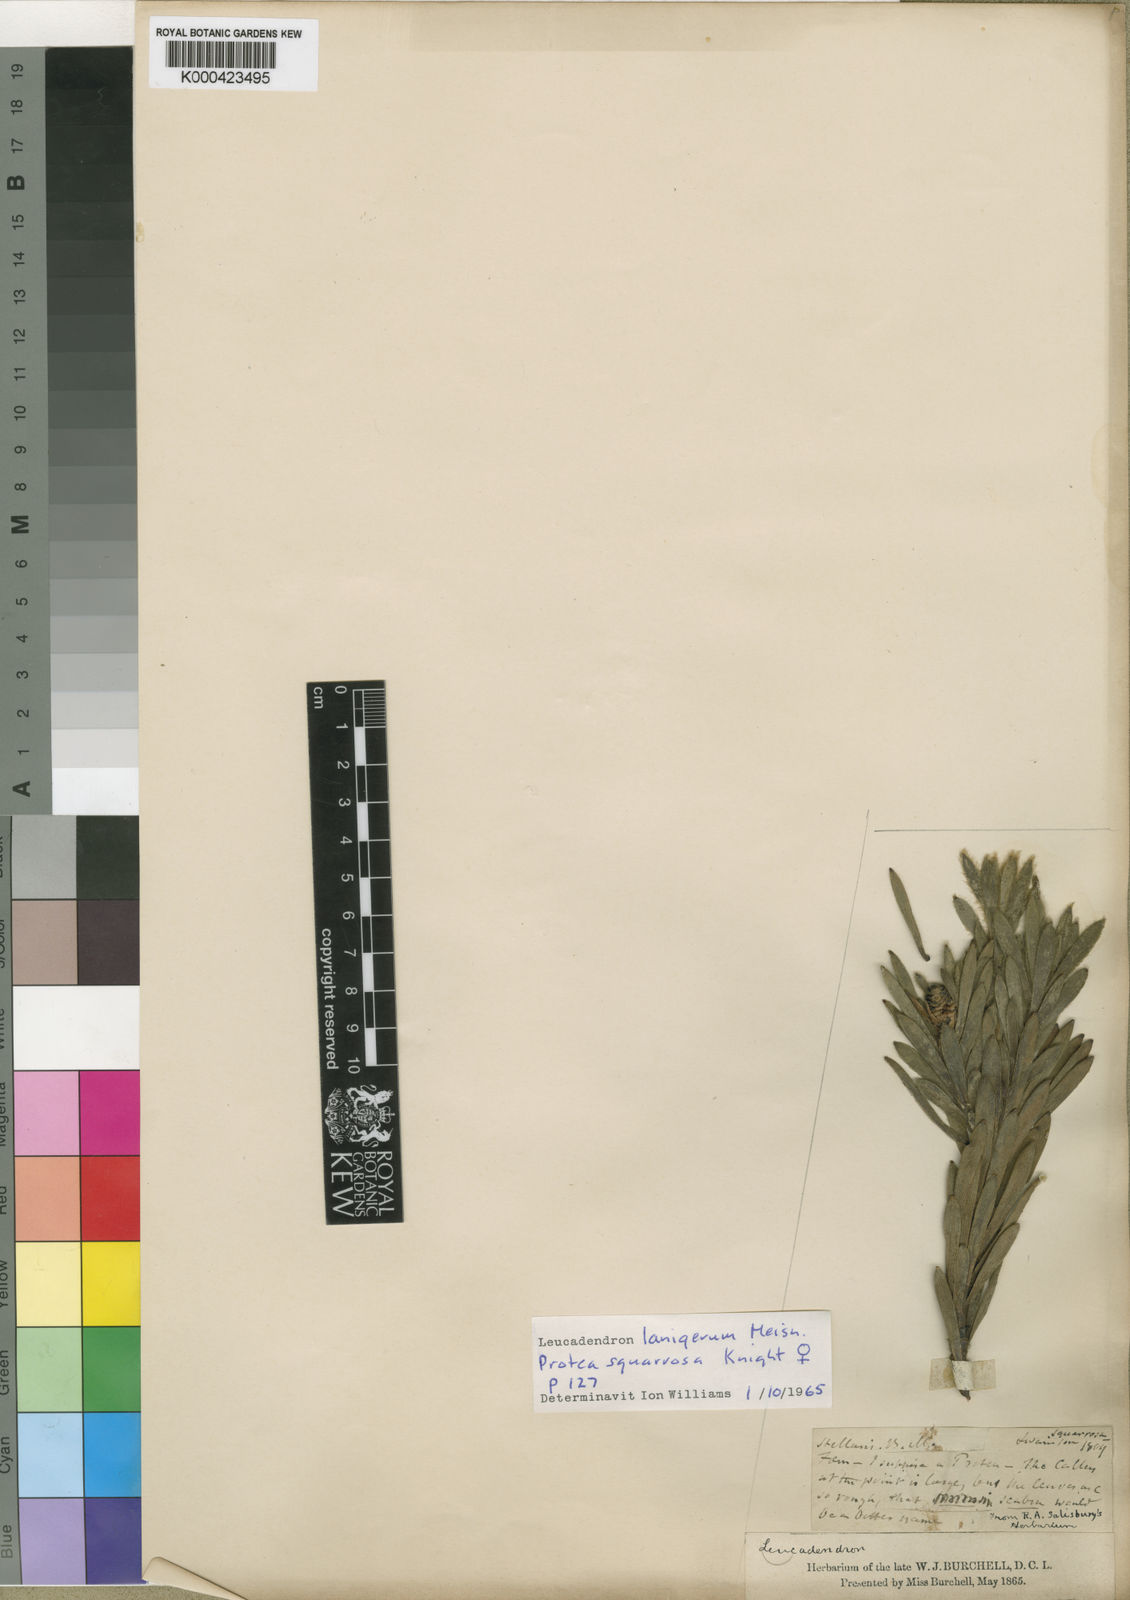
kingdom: Plantae
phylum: Tracheophyta
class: Magnoliopsida
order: Proteales
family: Proteaceae
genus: Leucadendron
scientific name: Leucadendron lanigerum
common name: Shale conebush
